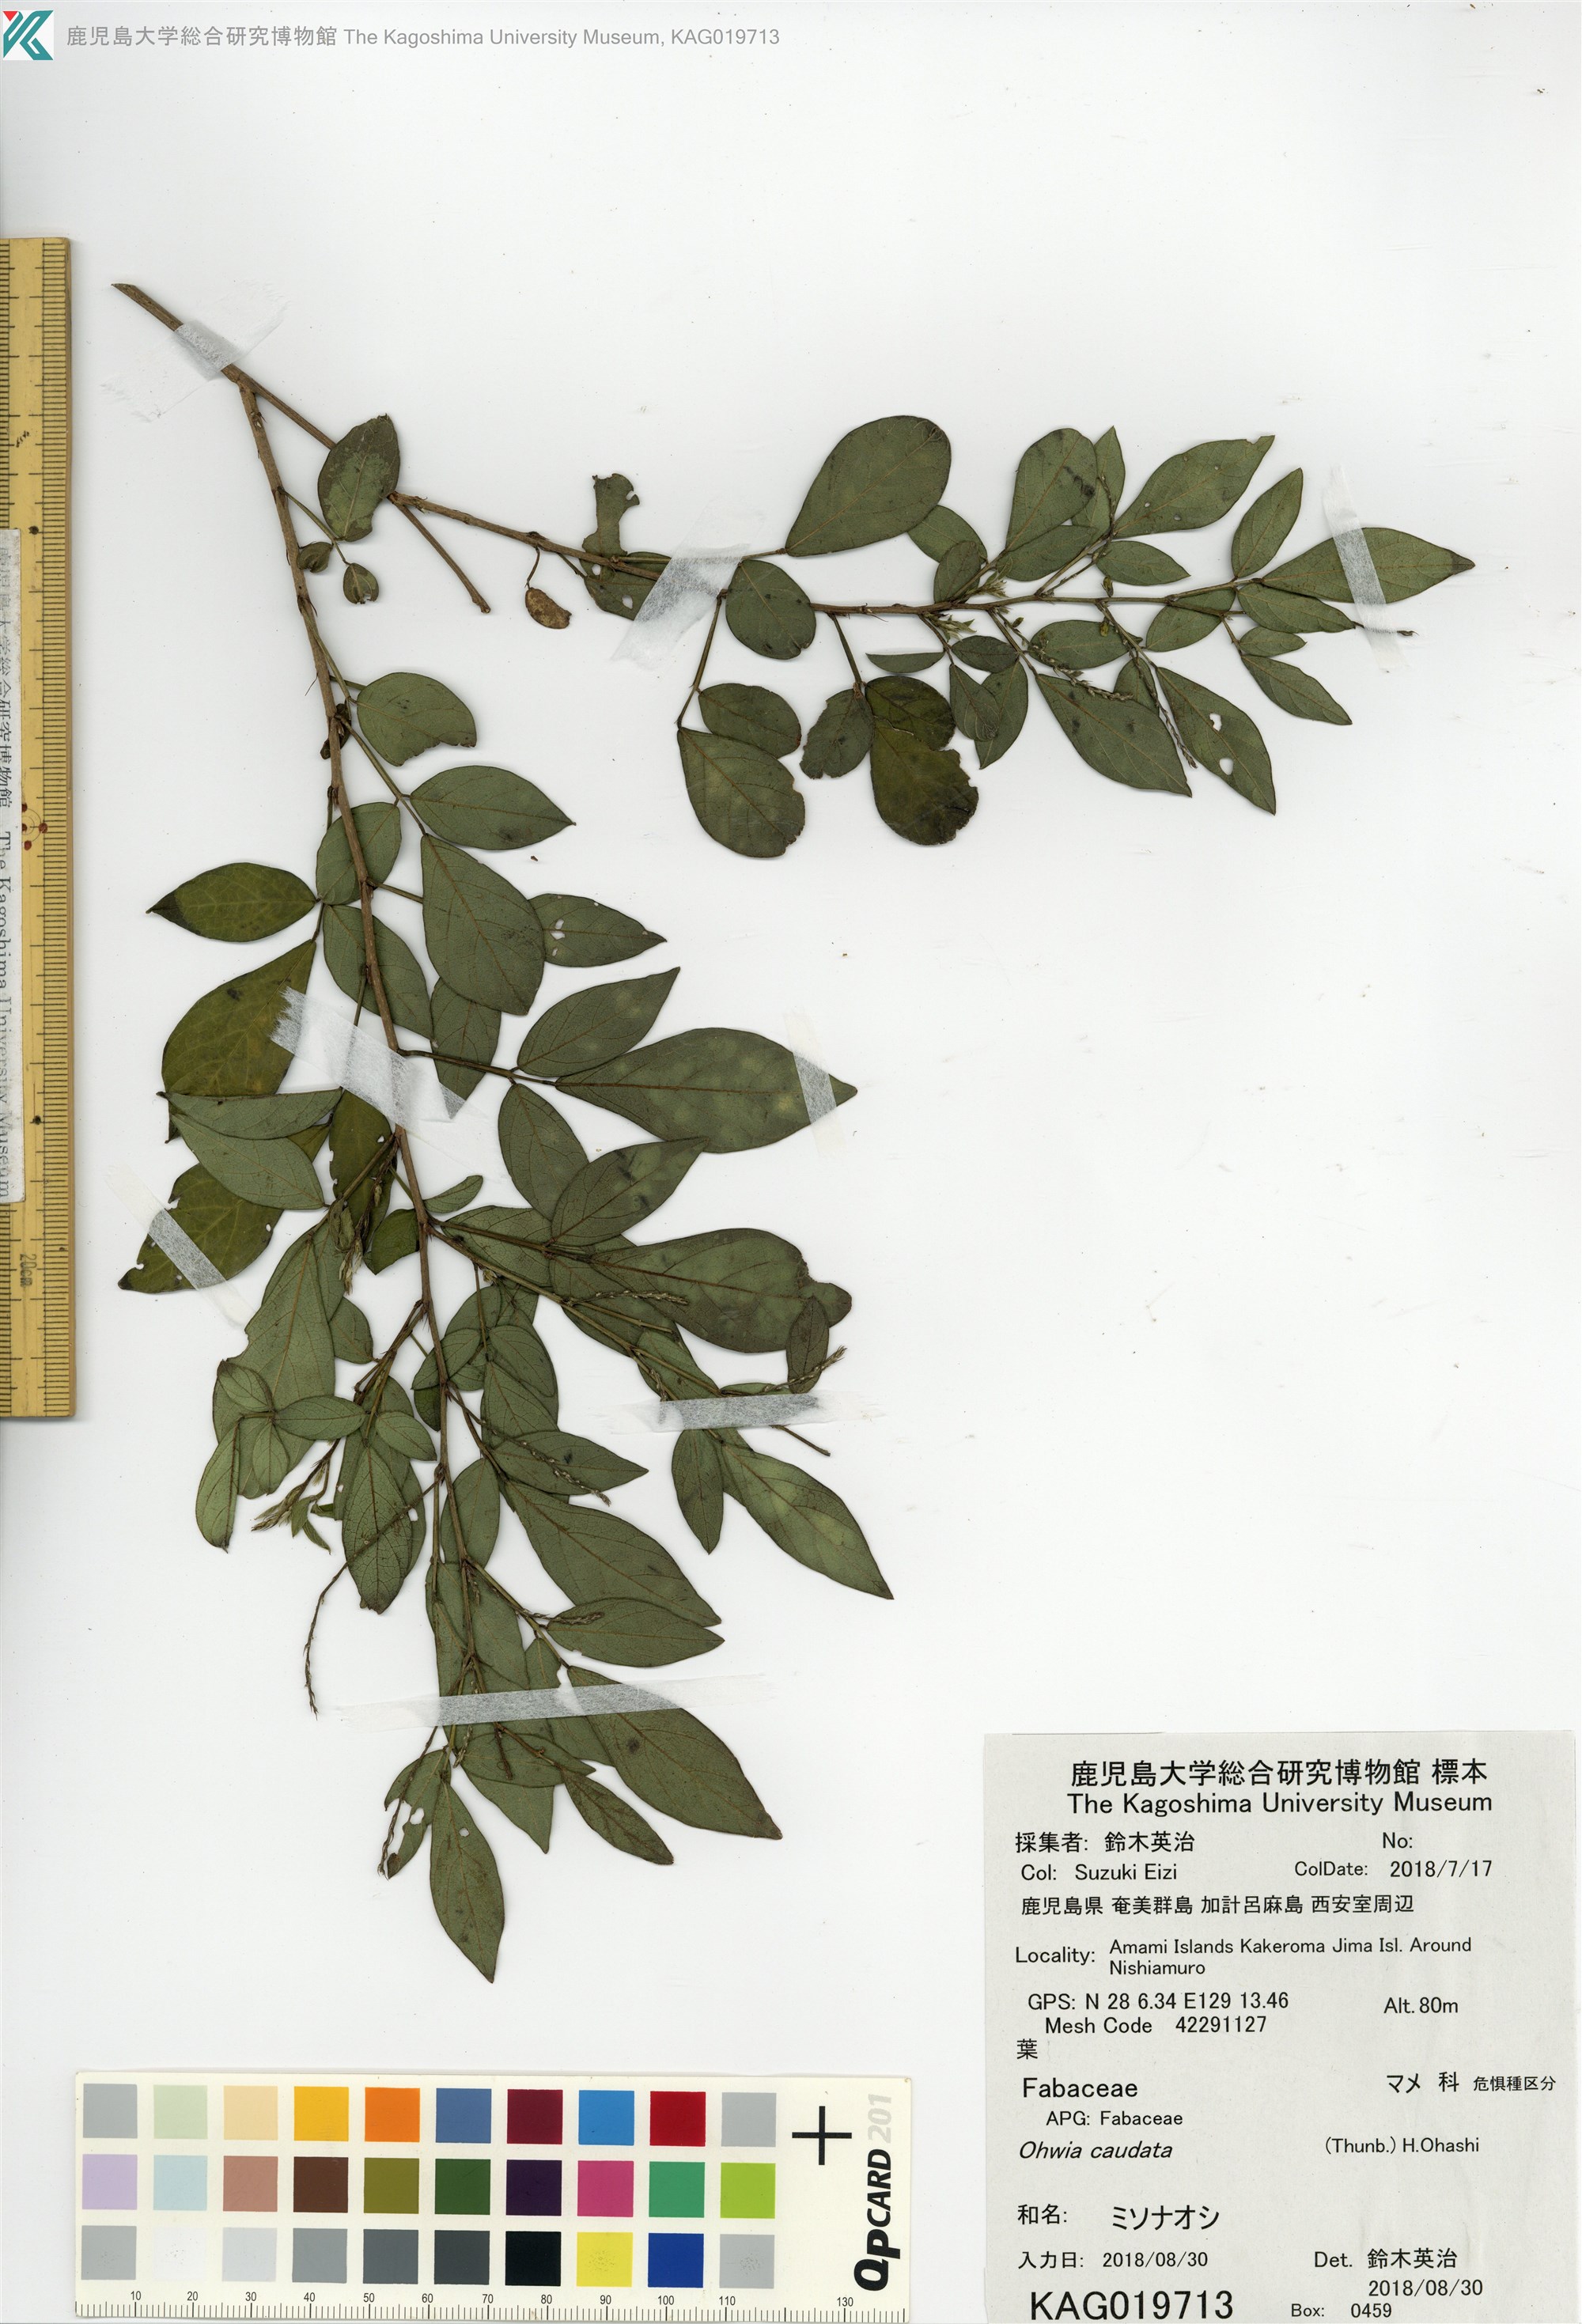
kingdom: Plantae
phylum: Tracheophyta
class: Magnoliopsida
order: Fabales
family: Fabaceae
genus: Ohwia
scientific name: Ohwia caudata
